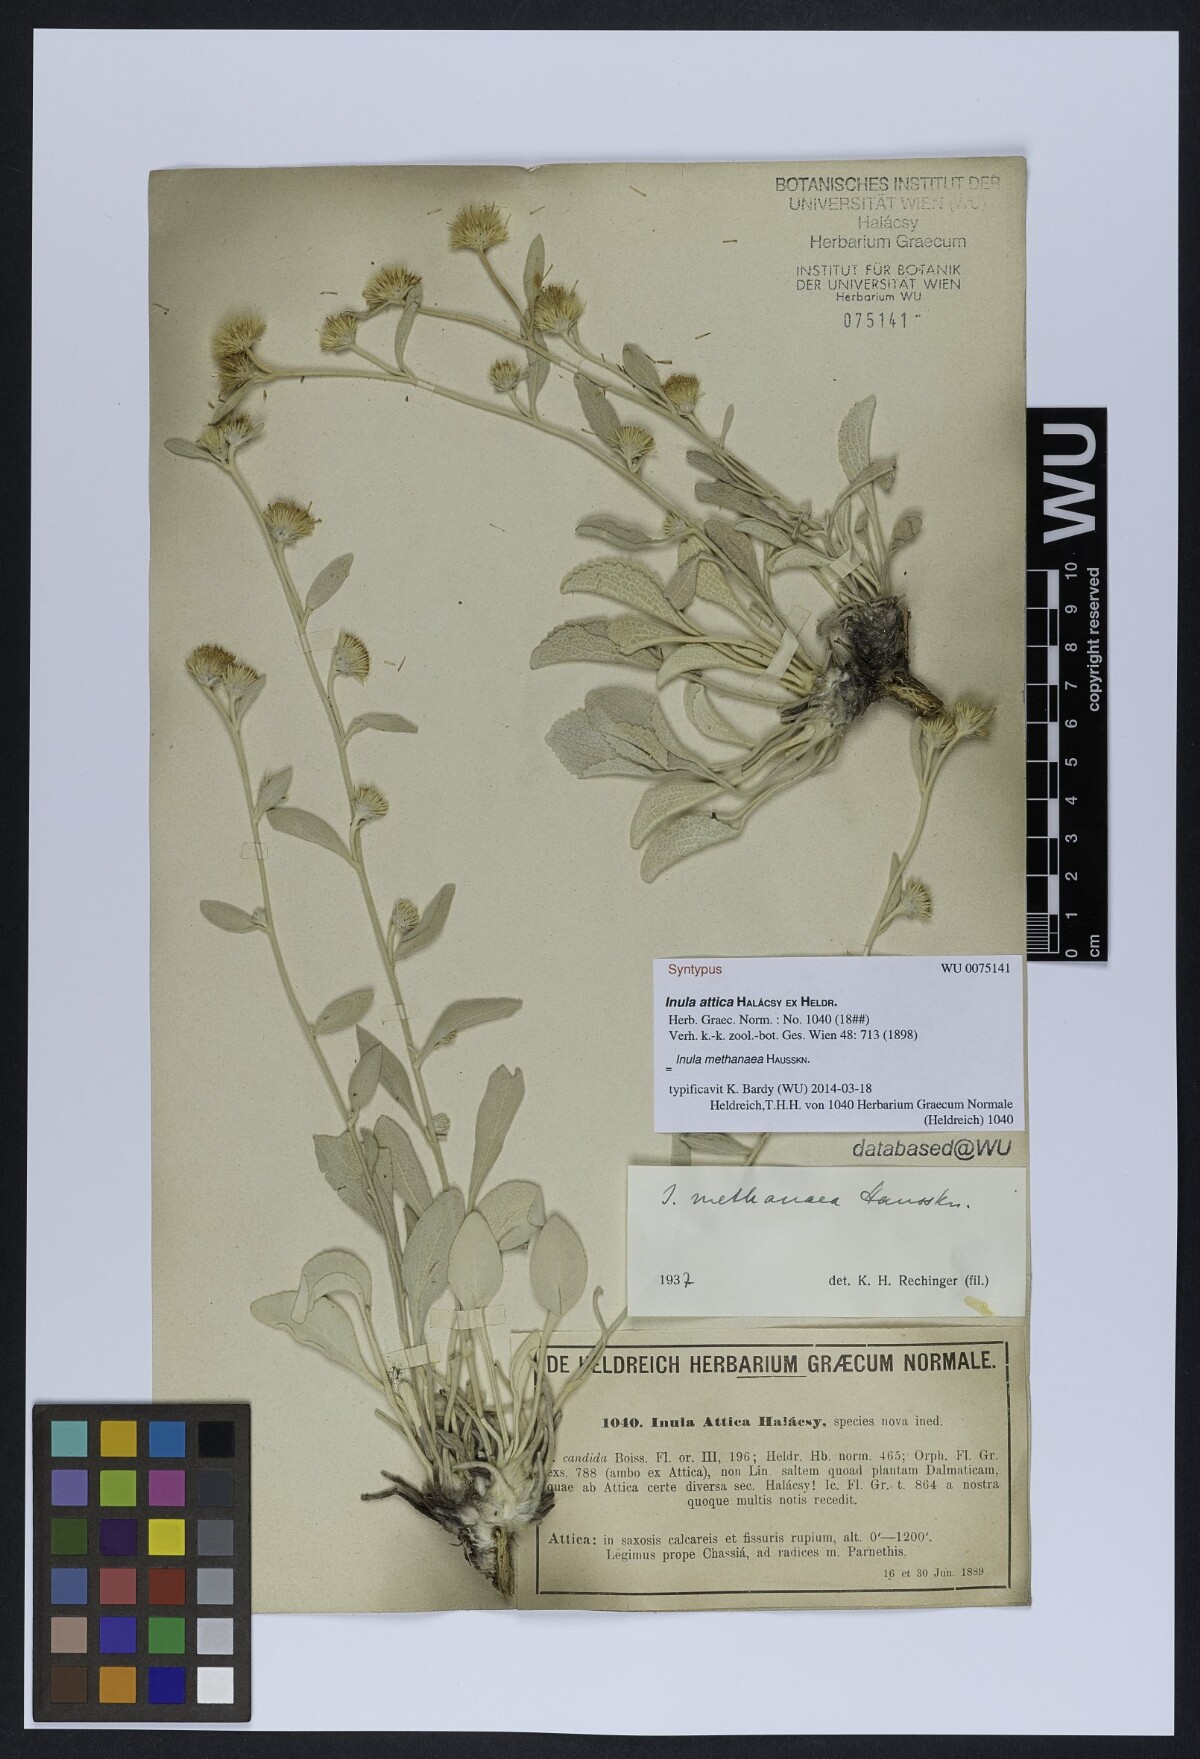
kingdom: Plantae
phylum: Tracheophyta
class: Magnoliopsida
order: Asterales
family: Asteraceae
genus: Pentanema
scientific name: Pentanema verbascifolium
